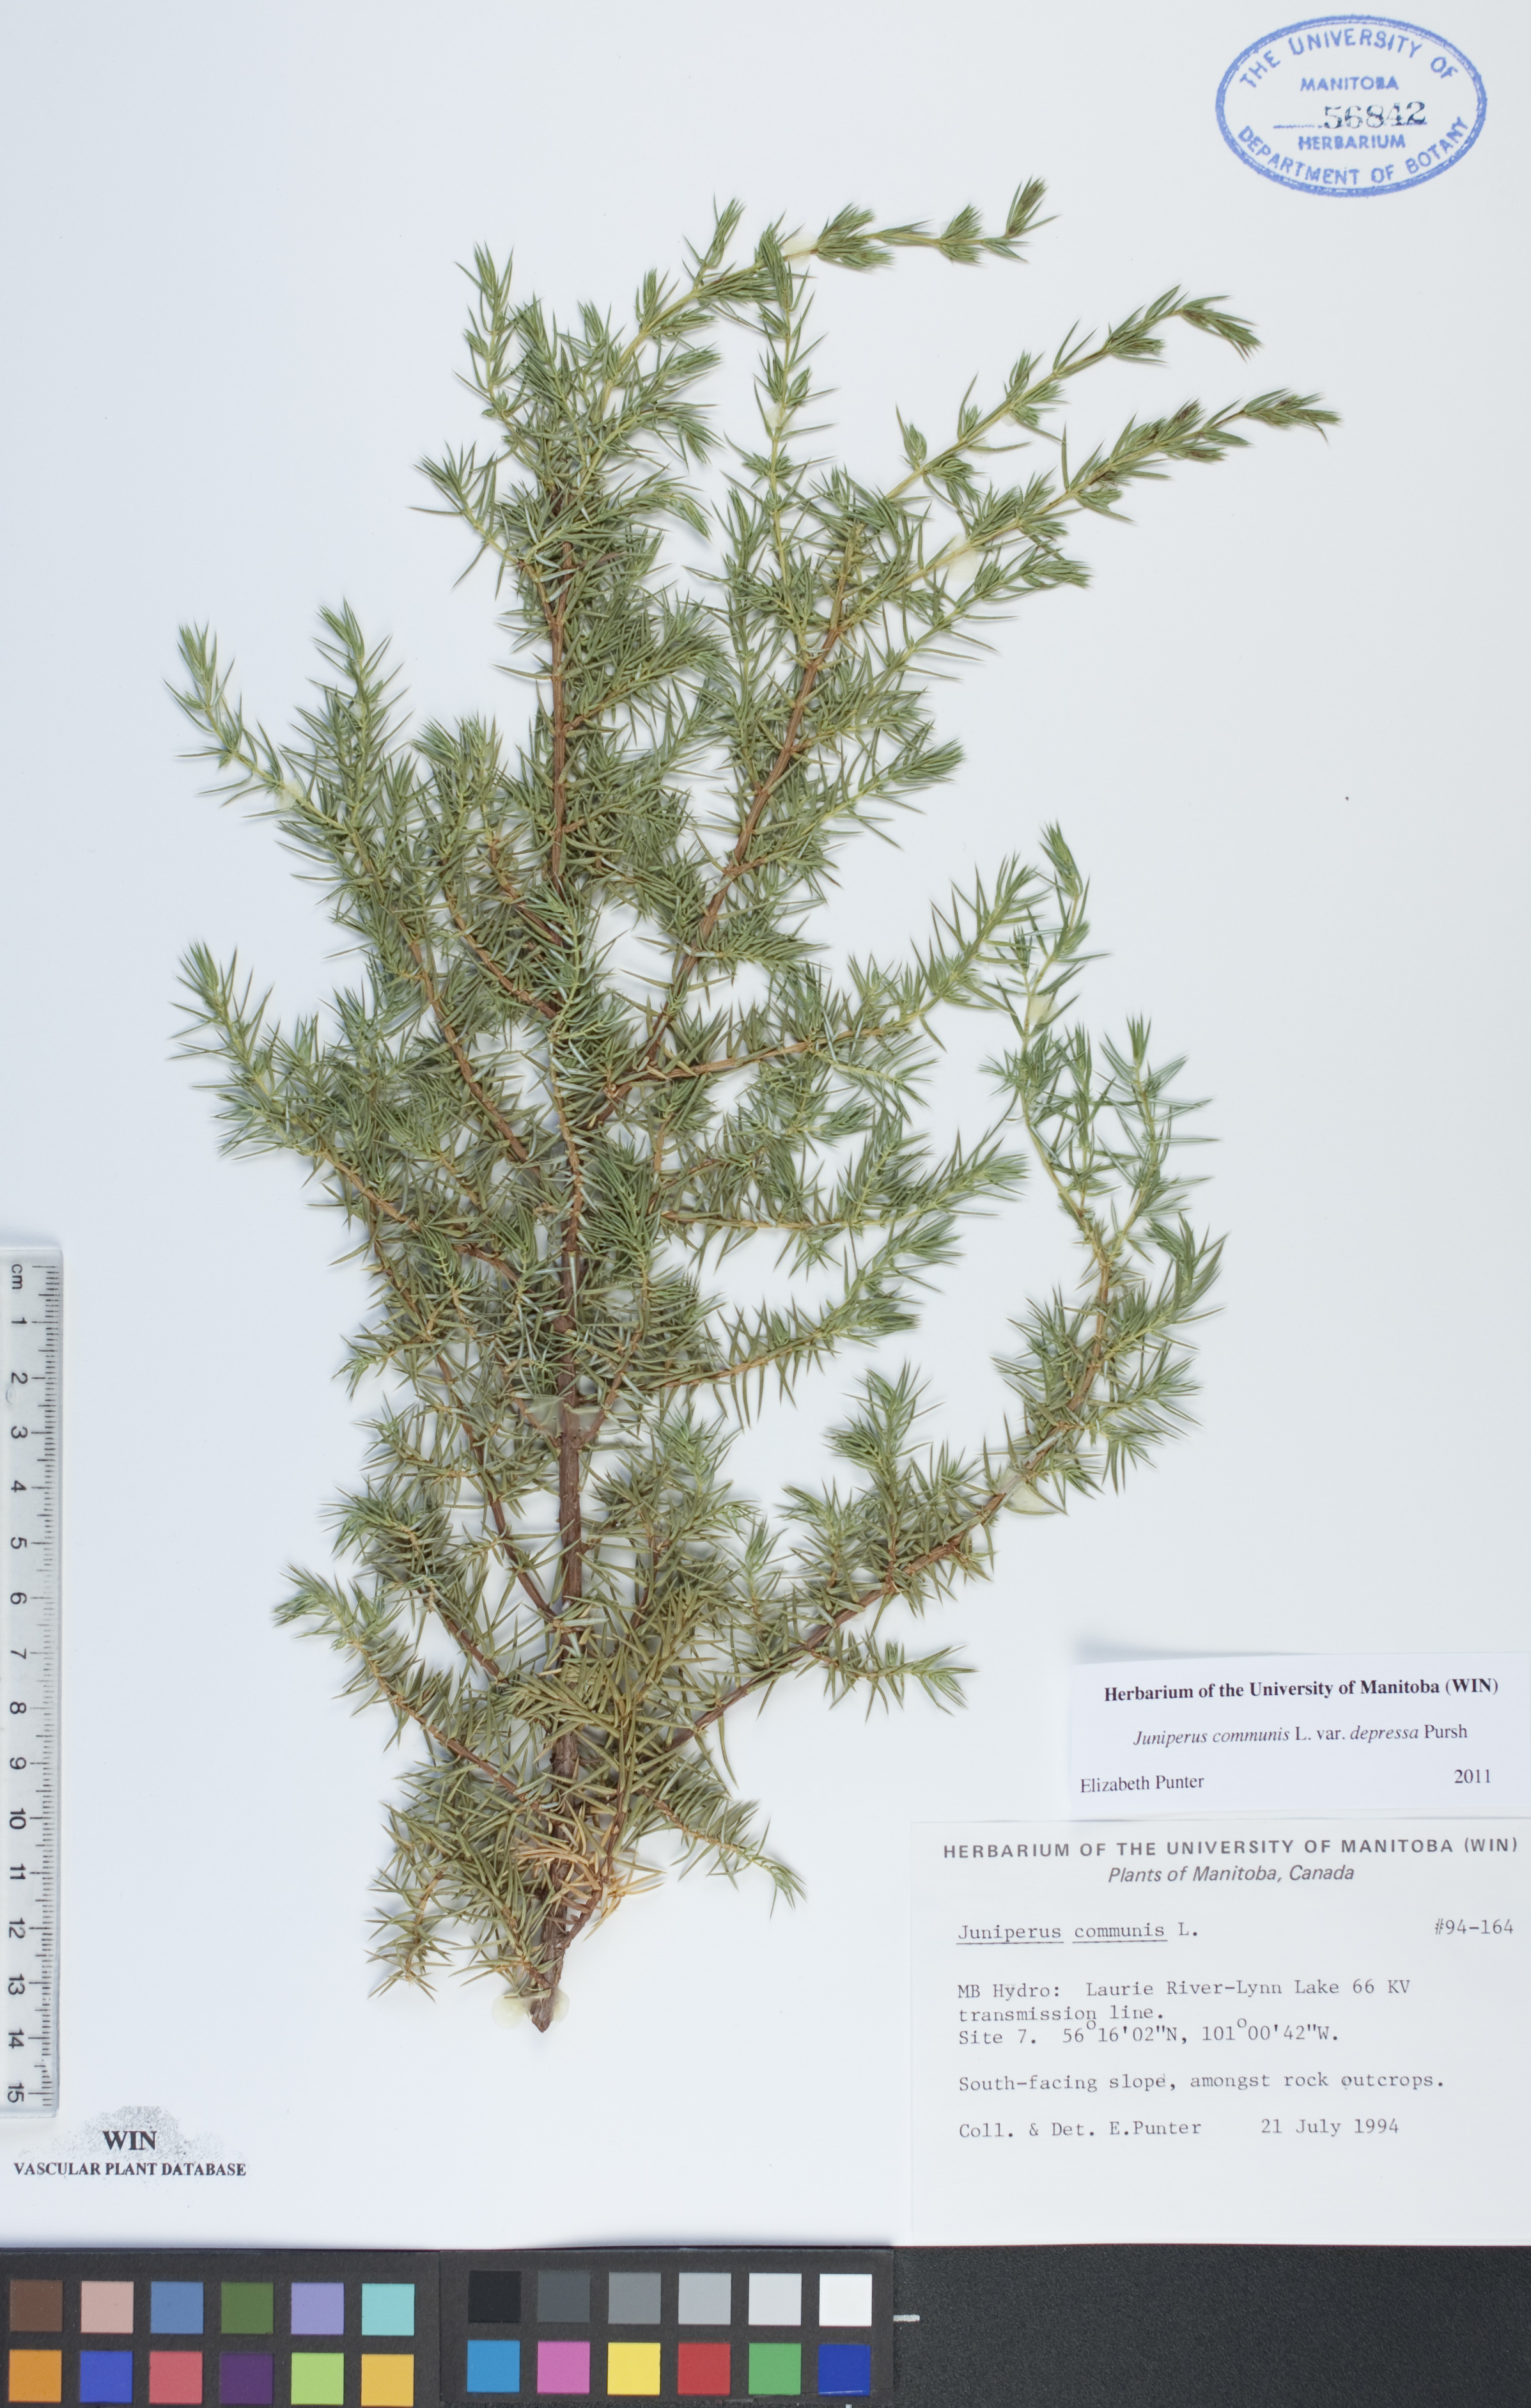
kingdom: Plantae
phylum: Tracheophyta
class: Pinopsida
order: Pinales
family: Cupressaceae
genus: Juniperus
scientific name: Juniperus communis
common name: Common juniper
